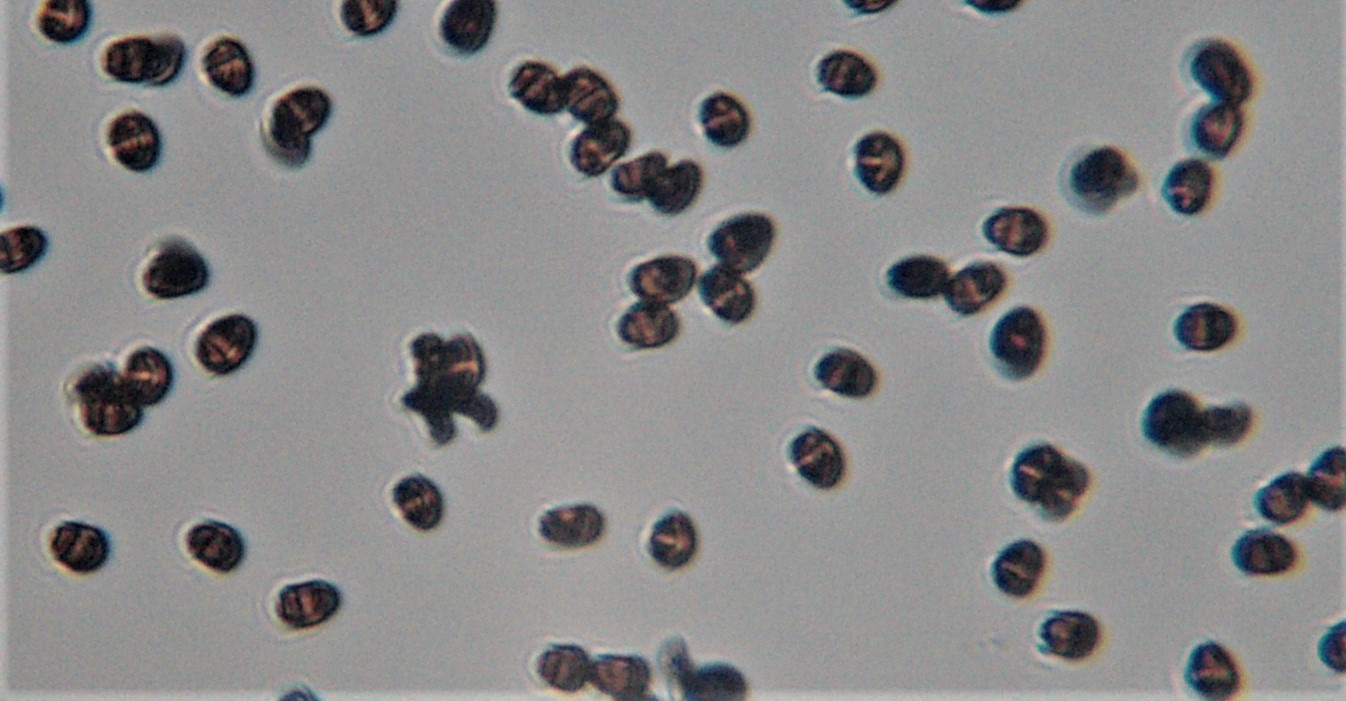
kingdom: Fungi
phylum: Basidiomycota
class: Agaricomycetes
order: Agaricales
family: Psathyrellaceae
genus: Psathyrella
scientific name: Psathyrella spadiceogrisea
